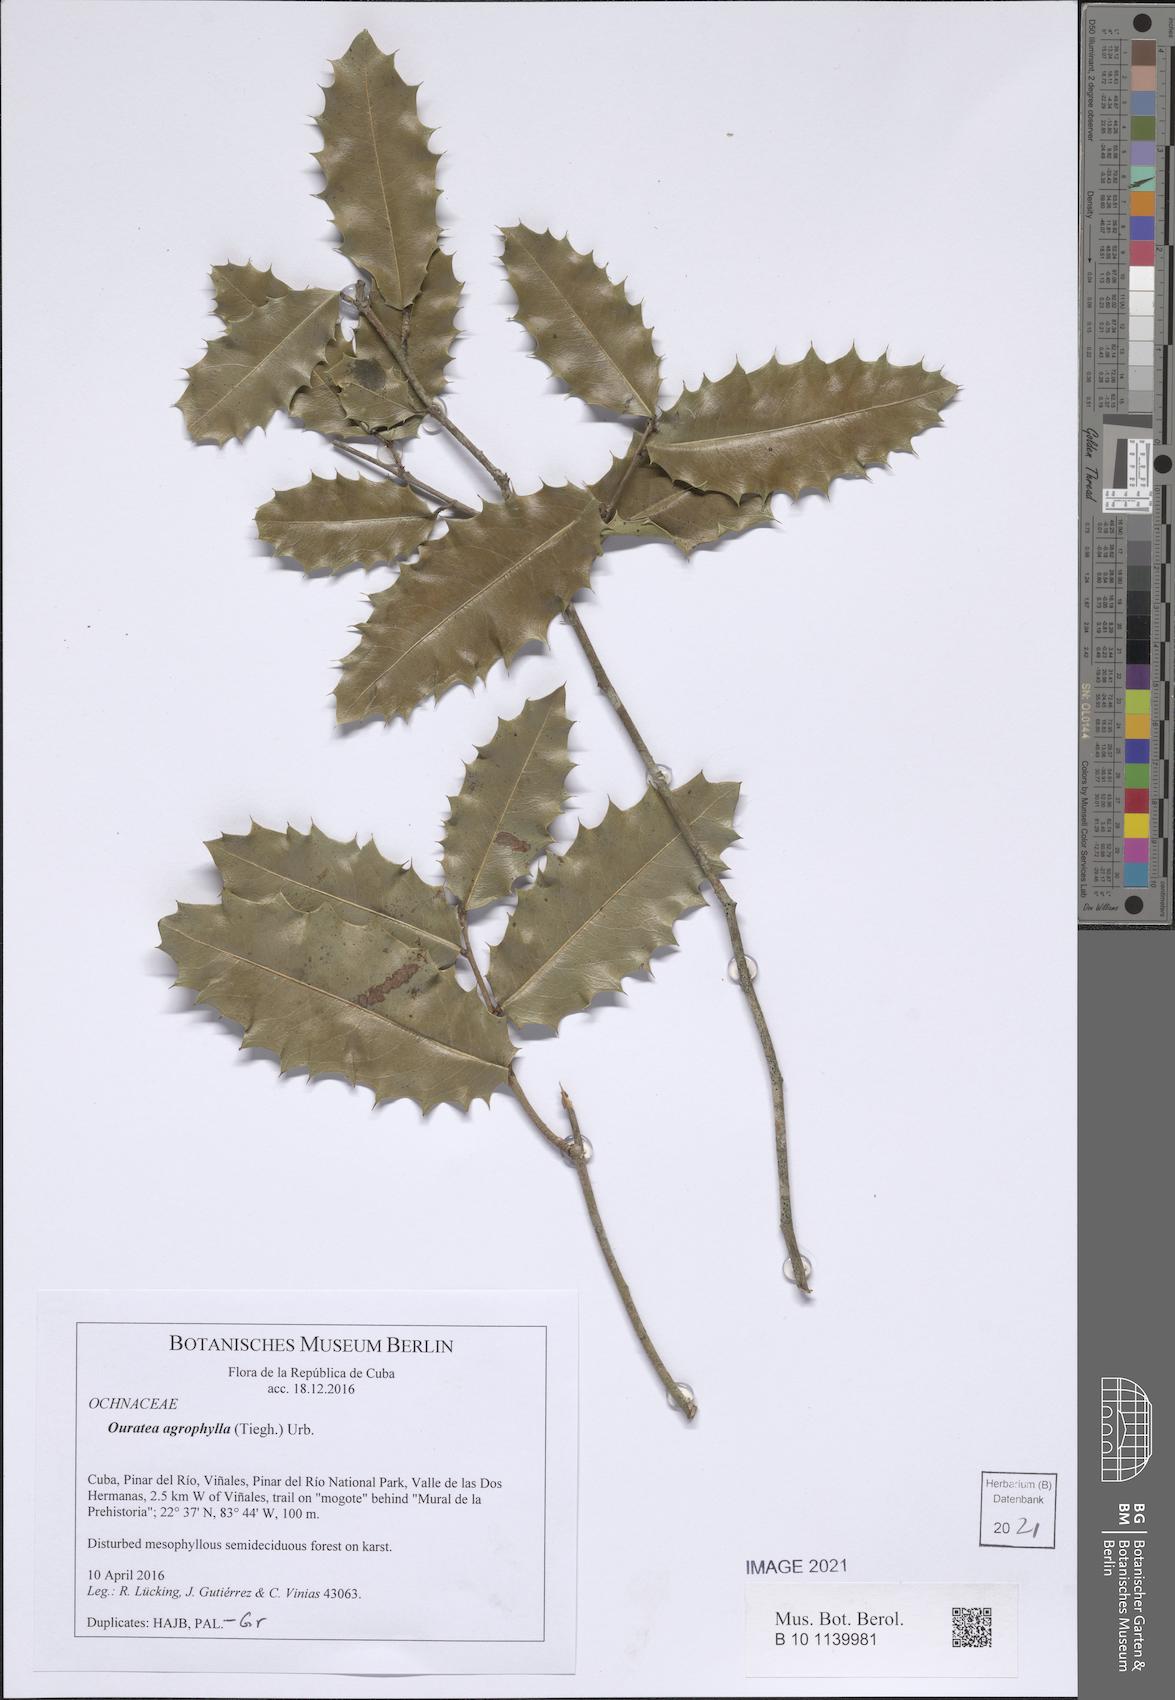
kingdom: Plantae
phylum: Tracheophyta
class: Magnoliopsida
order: Malpighiales
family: Ochnaceae
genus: Ouratea
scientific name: Ouratea agrophylla
